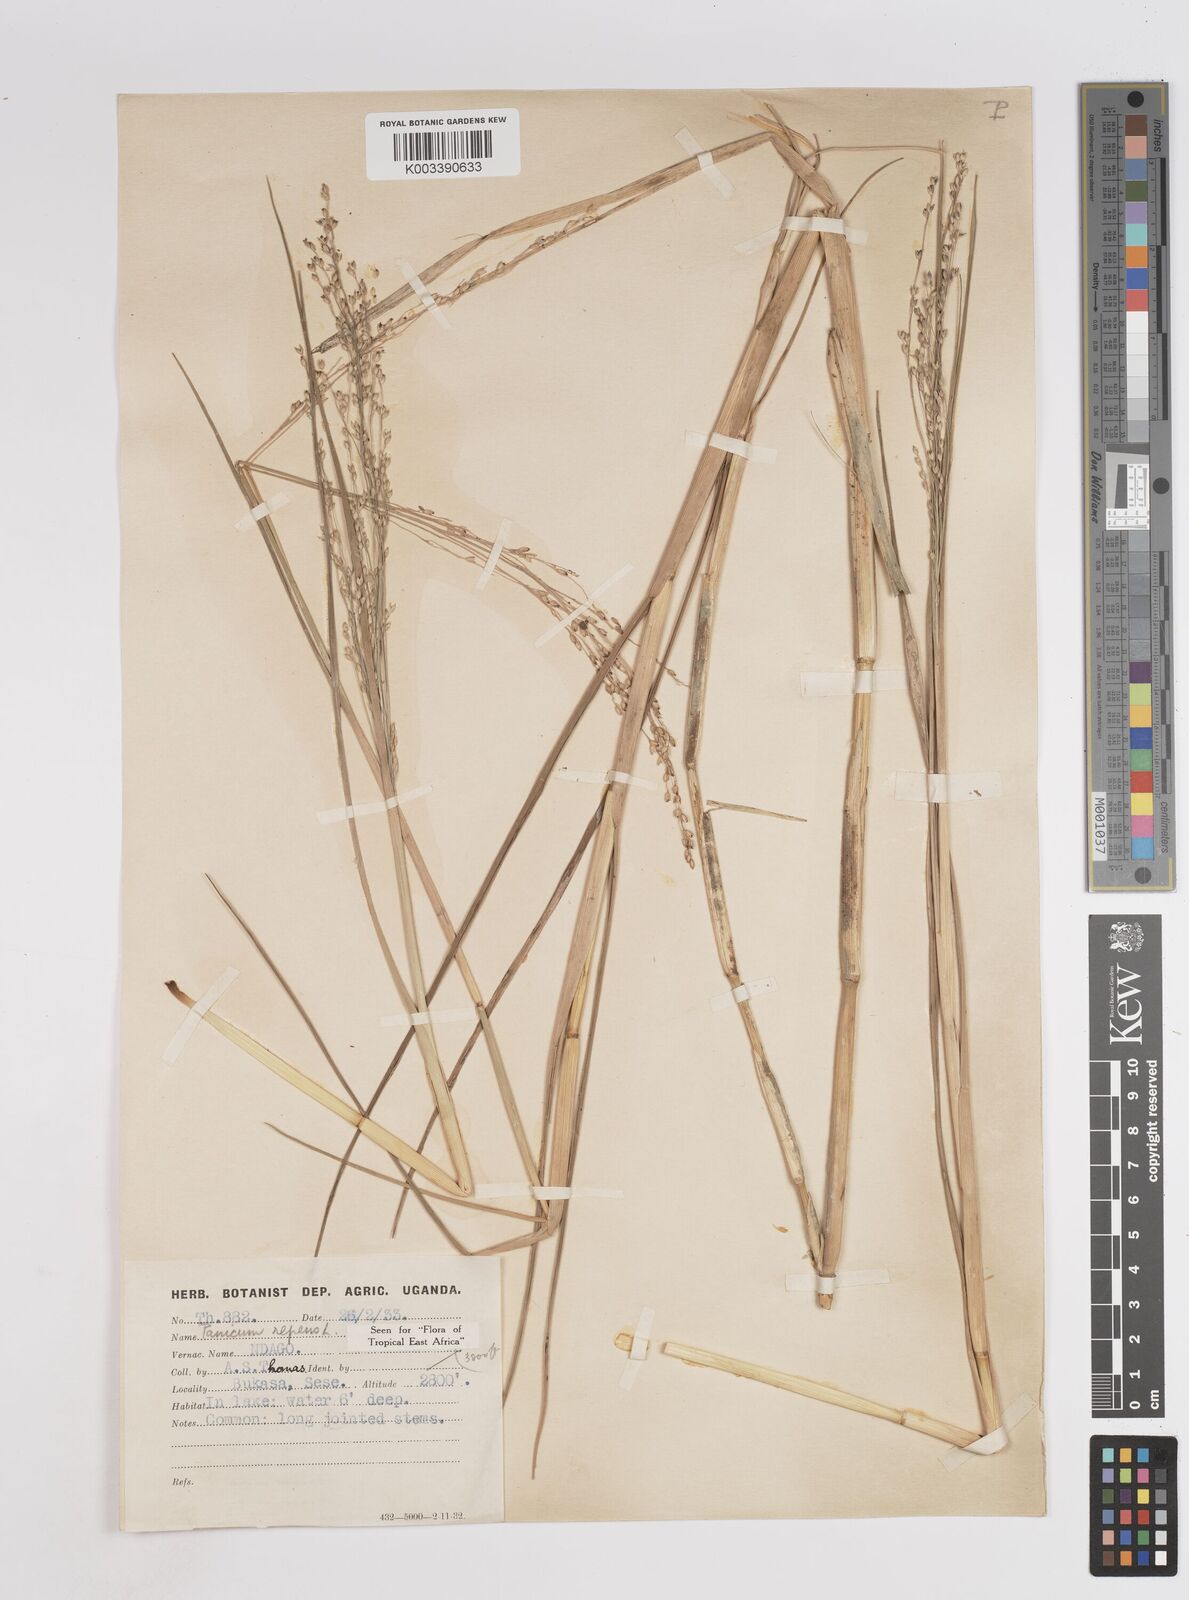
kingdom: Plantae
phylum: Tracheophyta
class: Liliopsida
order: Poales
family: Poaceae
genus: Panicum
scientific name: Panicum repens
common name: Torpedo grass
